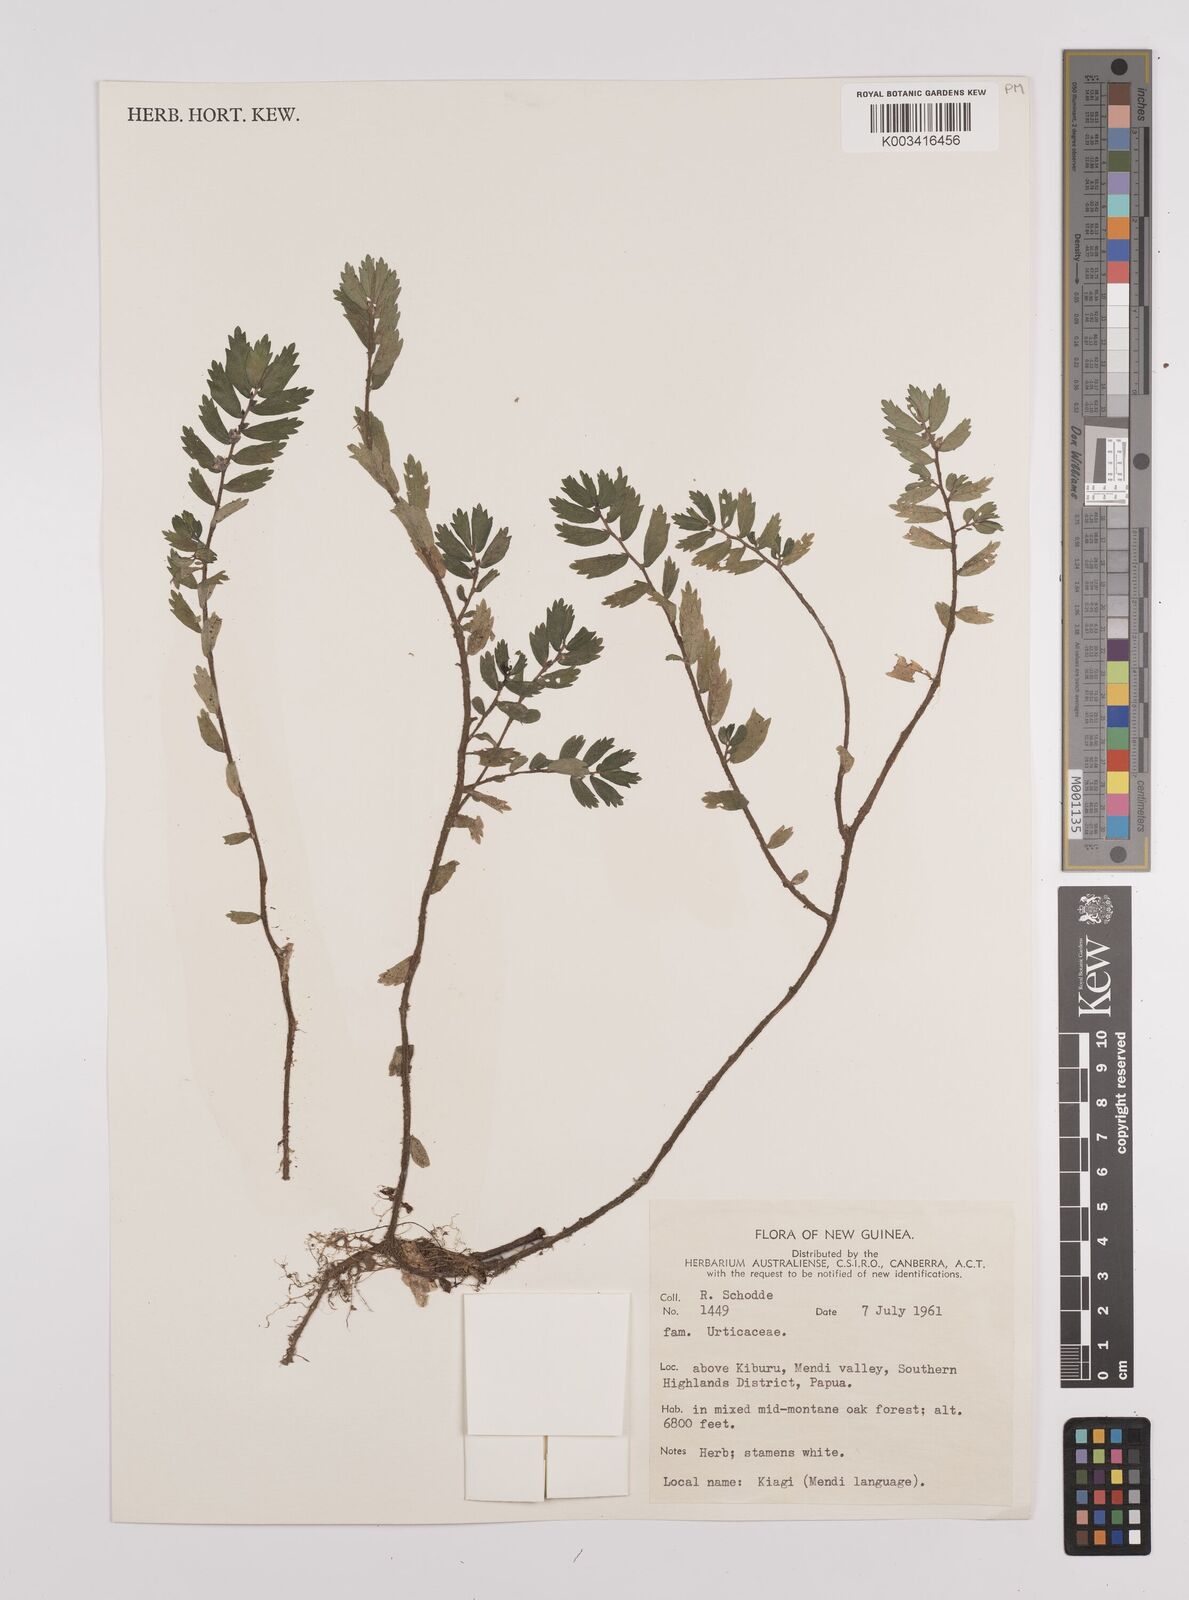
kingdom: Plantae
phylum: Tracheophyta
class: Magnoliopsida
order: Rosales
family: Urticaceae
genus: Elatostema
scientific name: Elatostema
